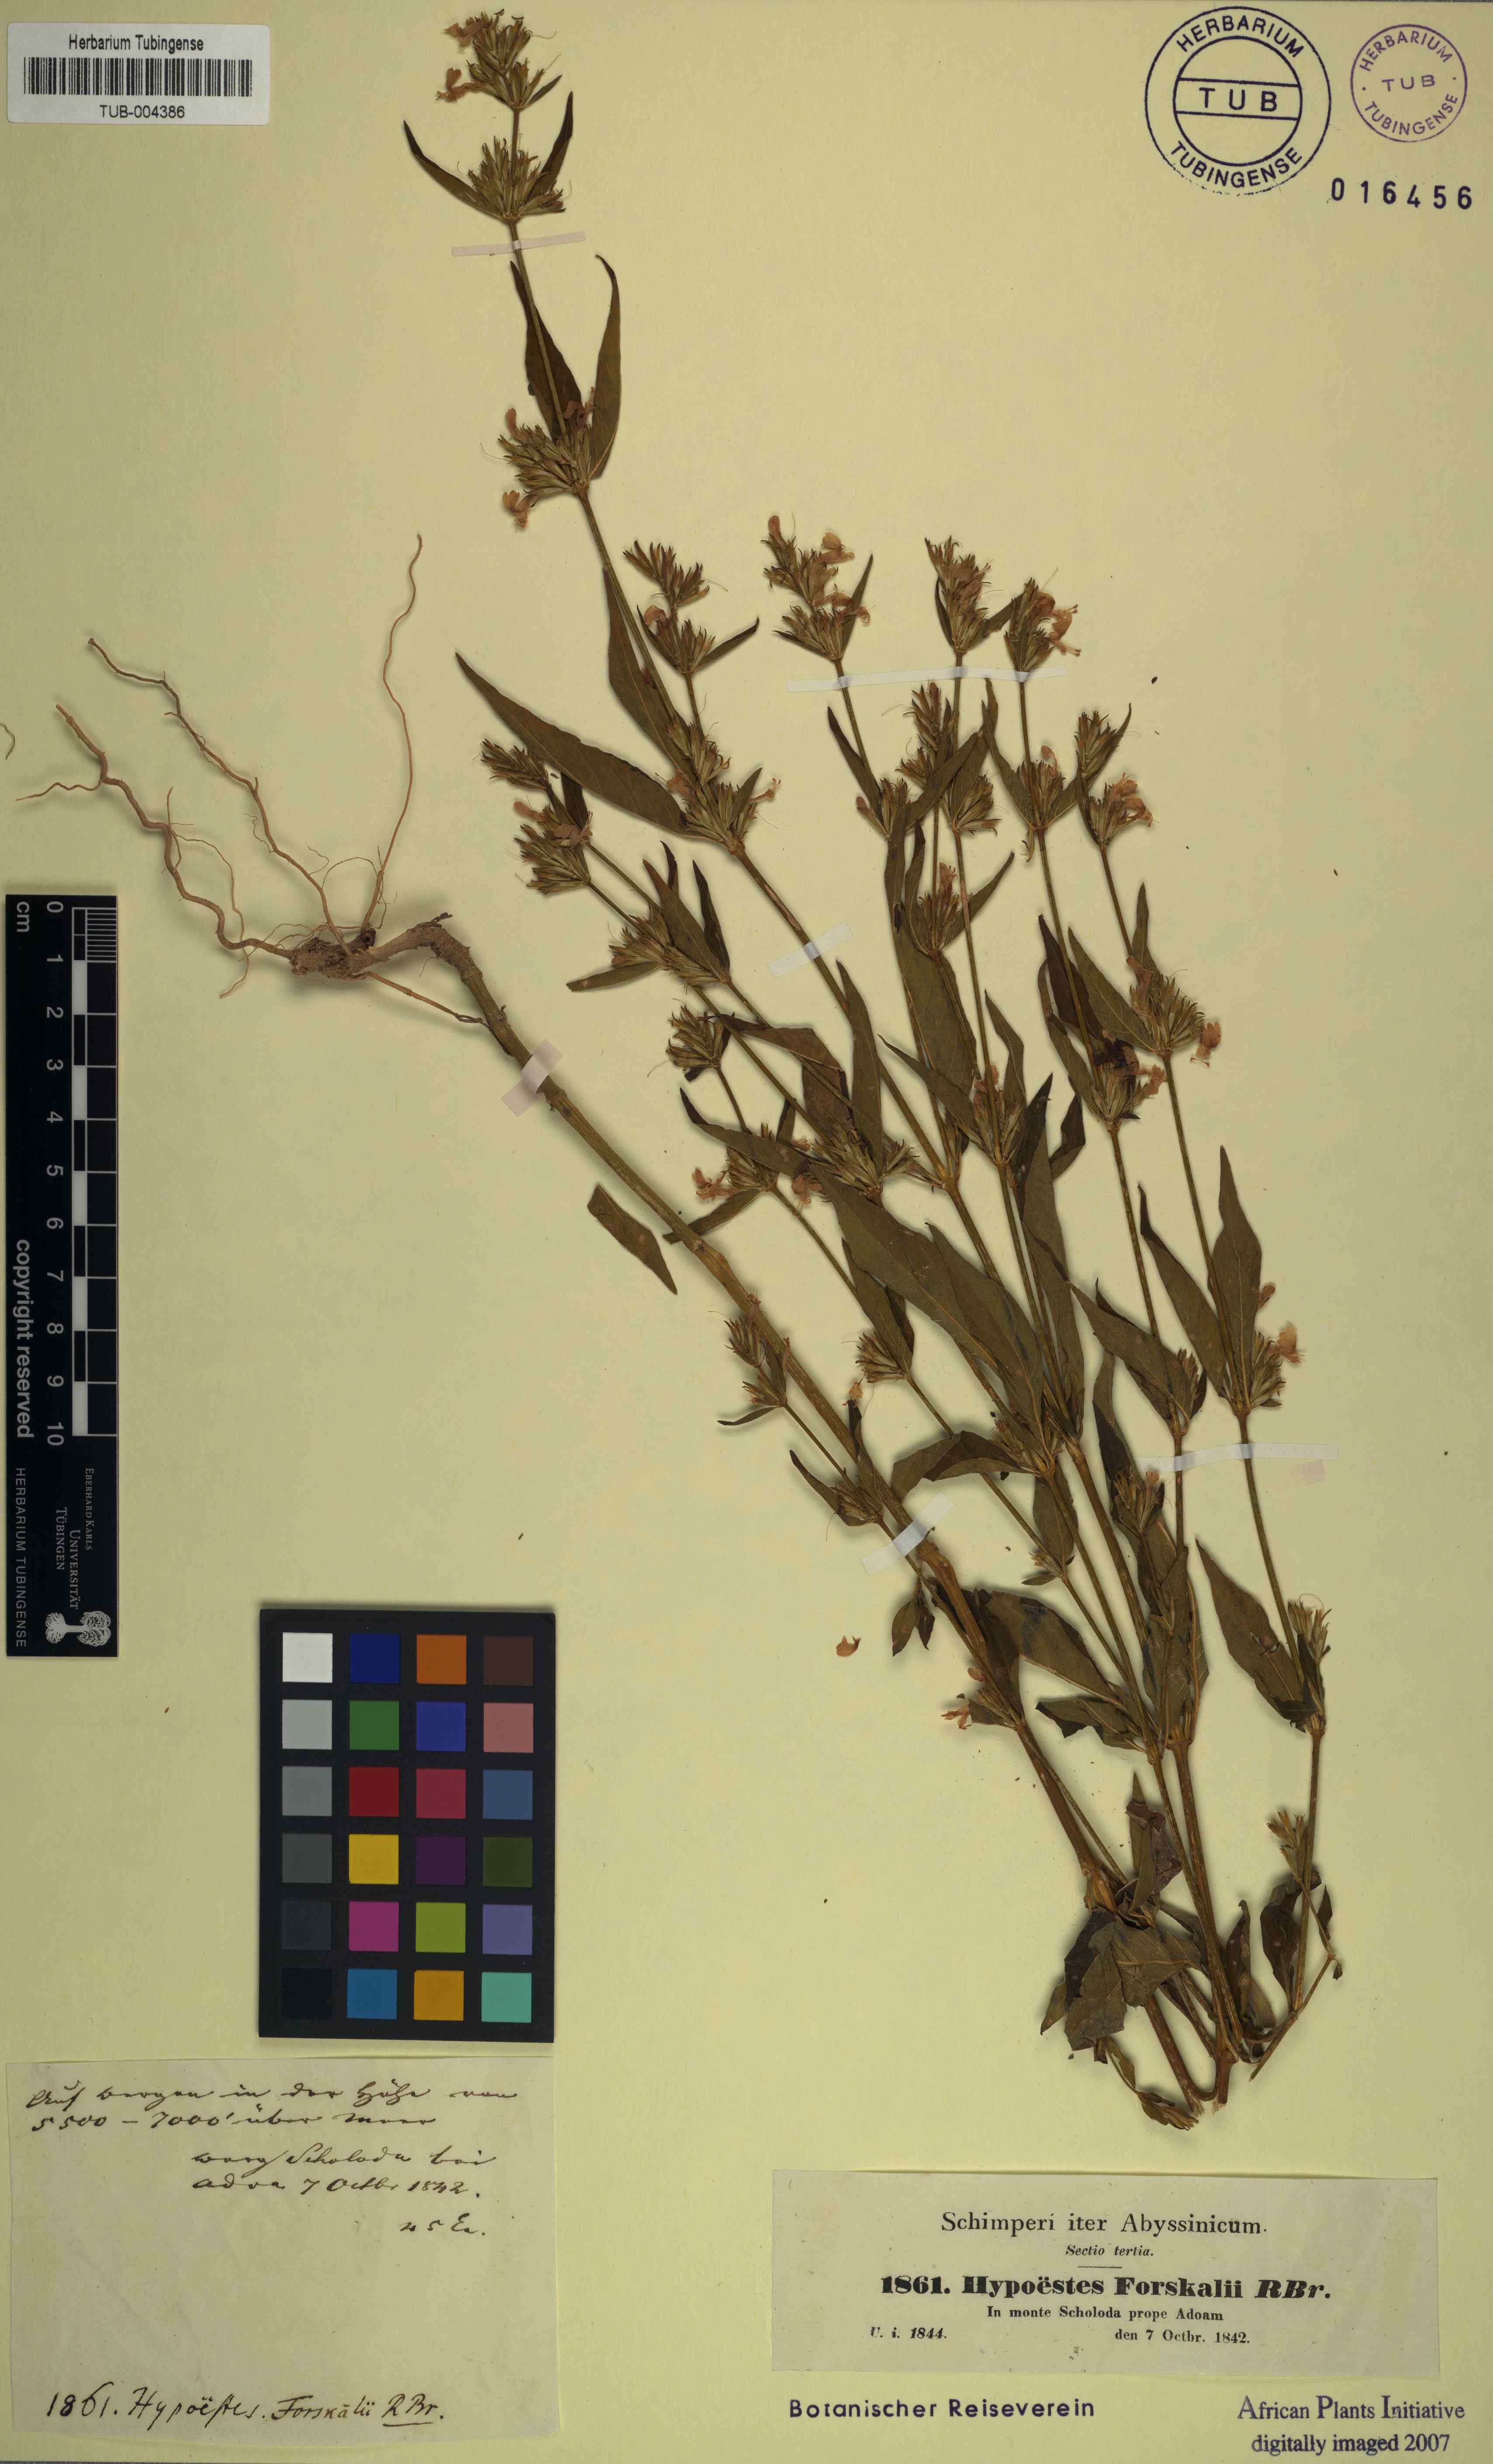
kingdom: Plantae
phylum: Tracheophyta
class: Magnoliopsida
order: Lamiales
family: Acanthaceae
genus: Hypoestes
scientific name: Hypoestes aristata
